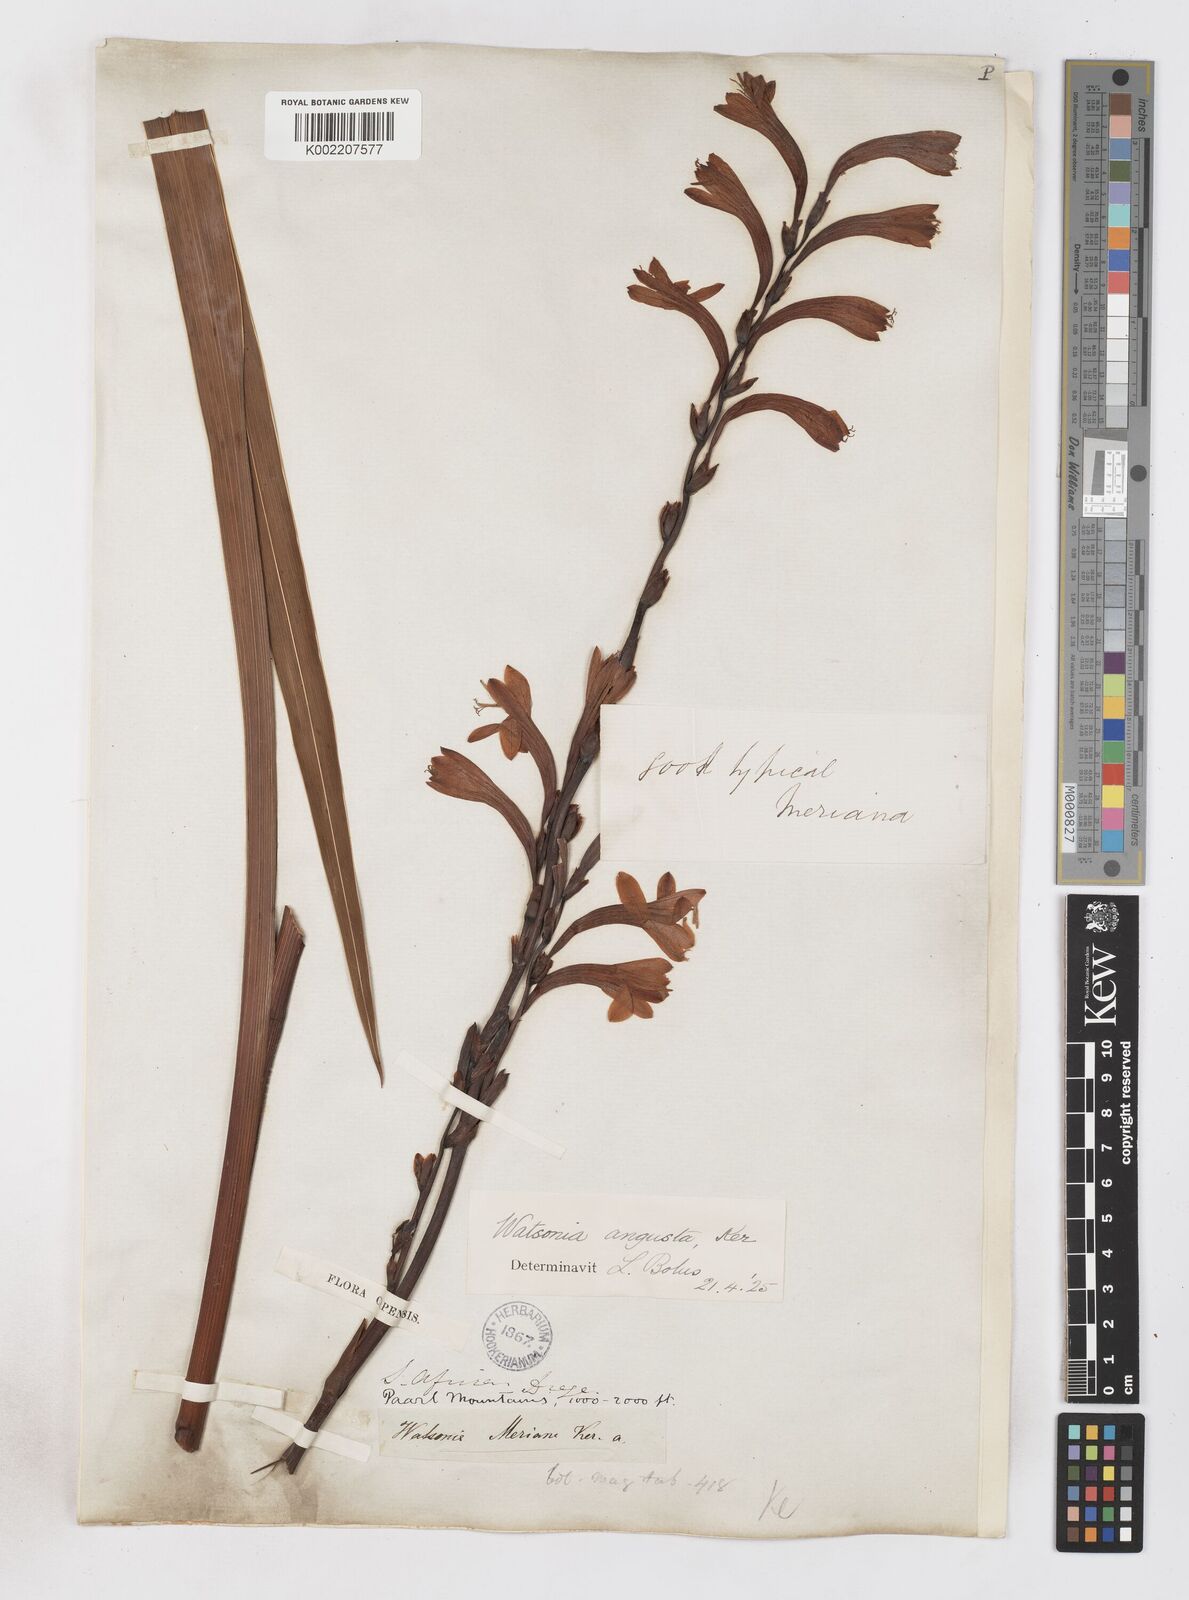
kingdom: Plantae
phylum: Tracheophyta
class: Liliopsida
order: Asparagales
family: Iridaceae
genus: Watsonia
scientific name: Watsonia
